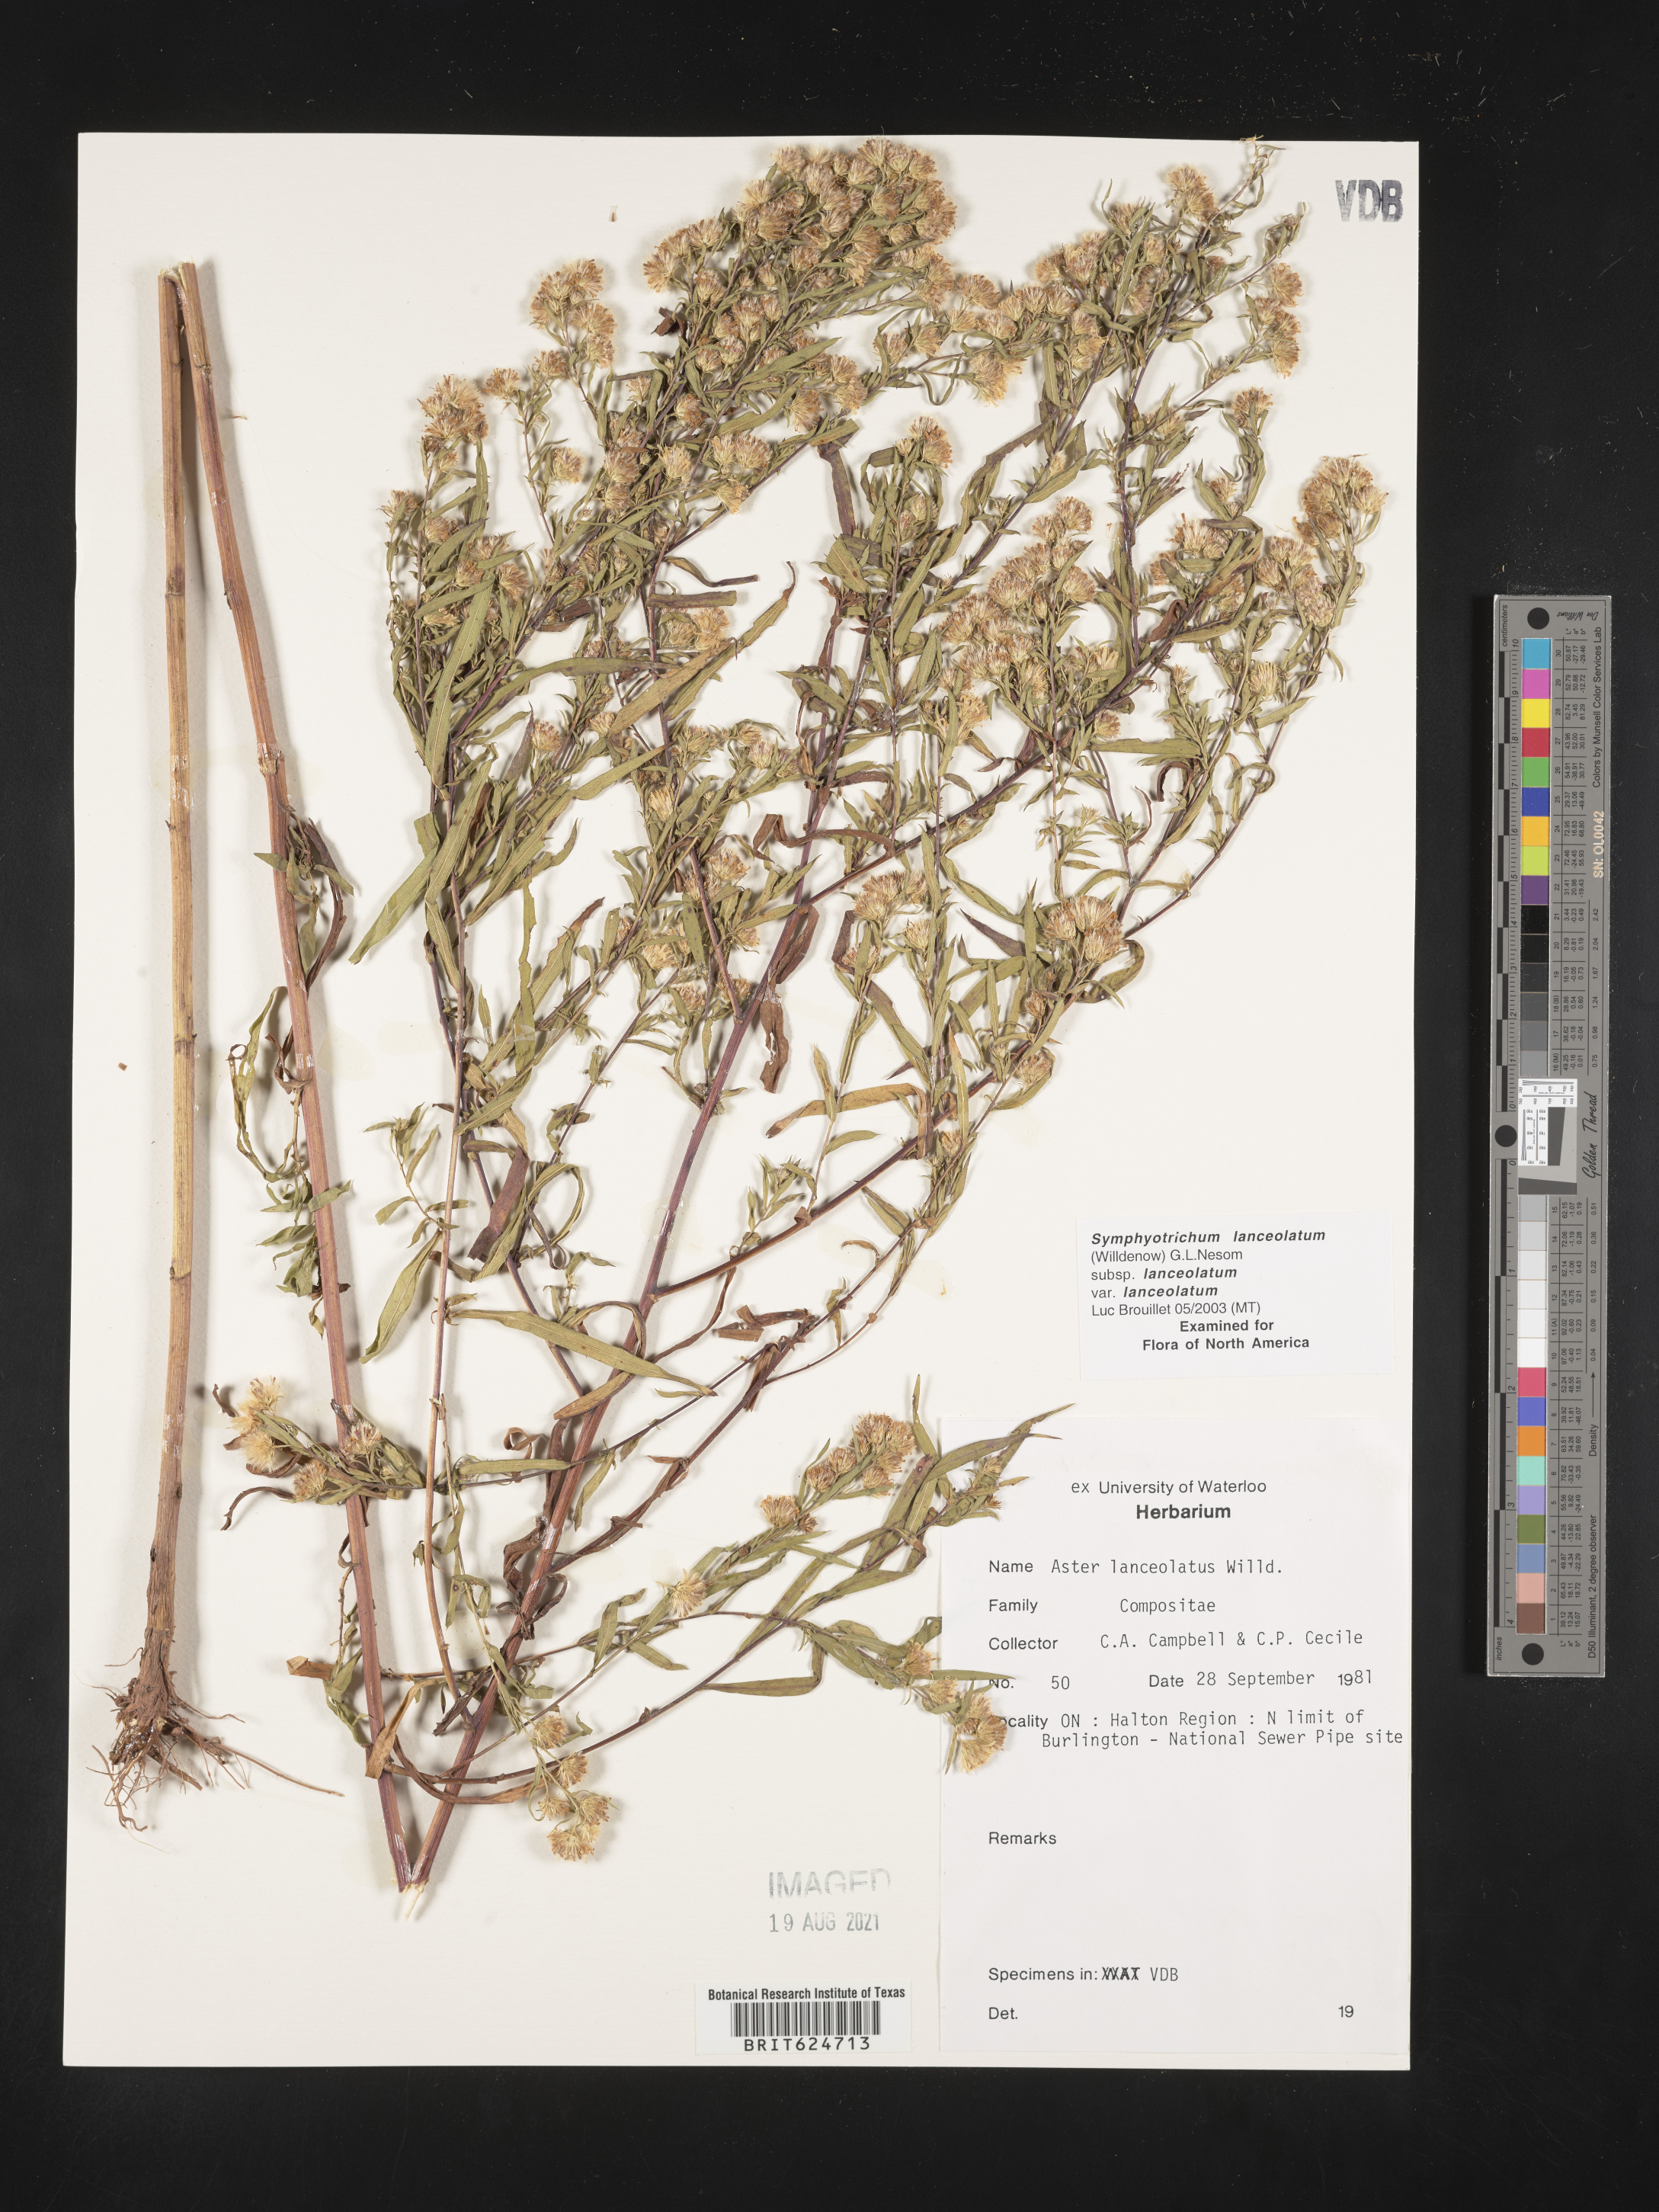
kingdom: Plantae
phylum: Tracheophyta
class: Magnoliopsida
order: Asterales
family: Asteraceae
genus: Symphyotrichum
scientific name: Symphyotrichum lanceolatum
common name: Panicled aster
